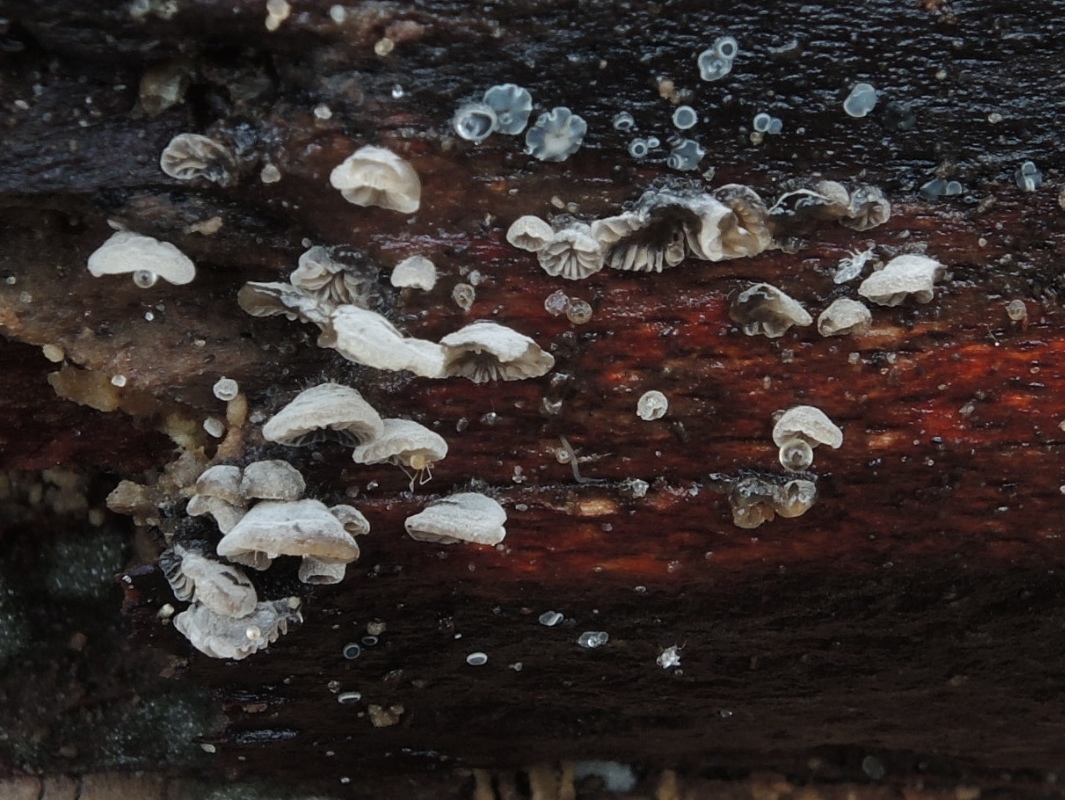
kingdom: Fungi
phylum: Basidiomycota
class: Agaricomycetes
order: Agaricales
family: Pleurotaceae
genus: Resupinatus
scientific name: Resupinatus applicatus
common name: lysfiltet barkhat
